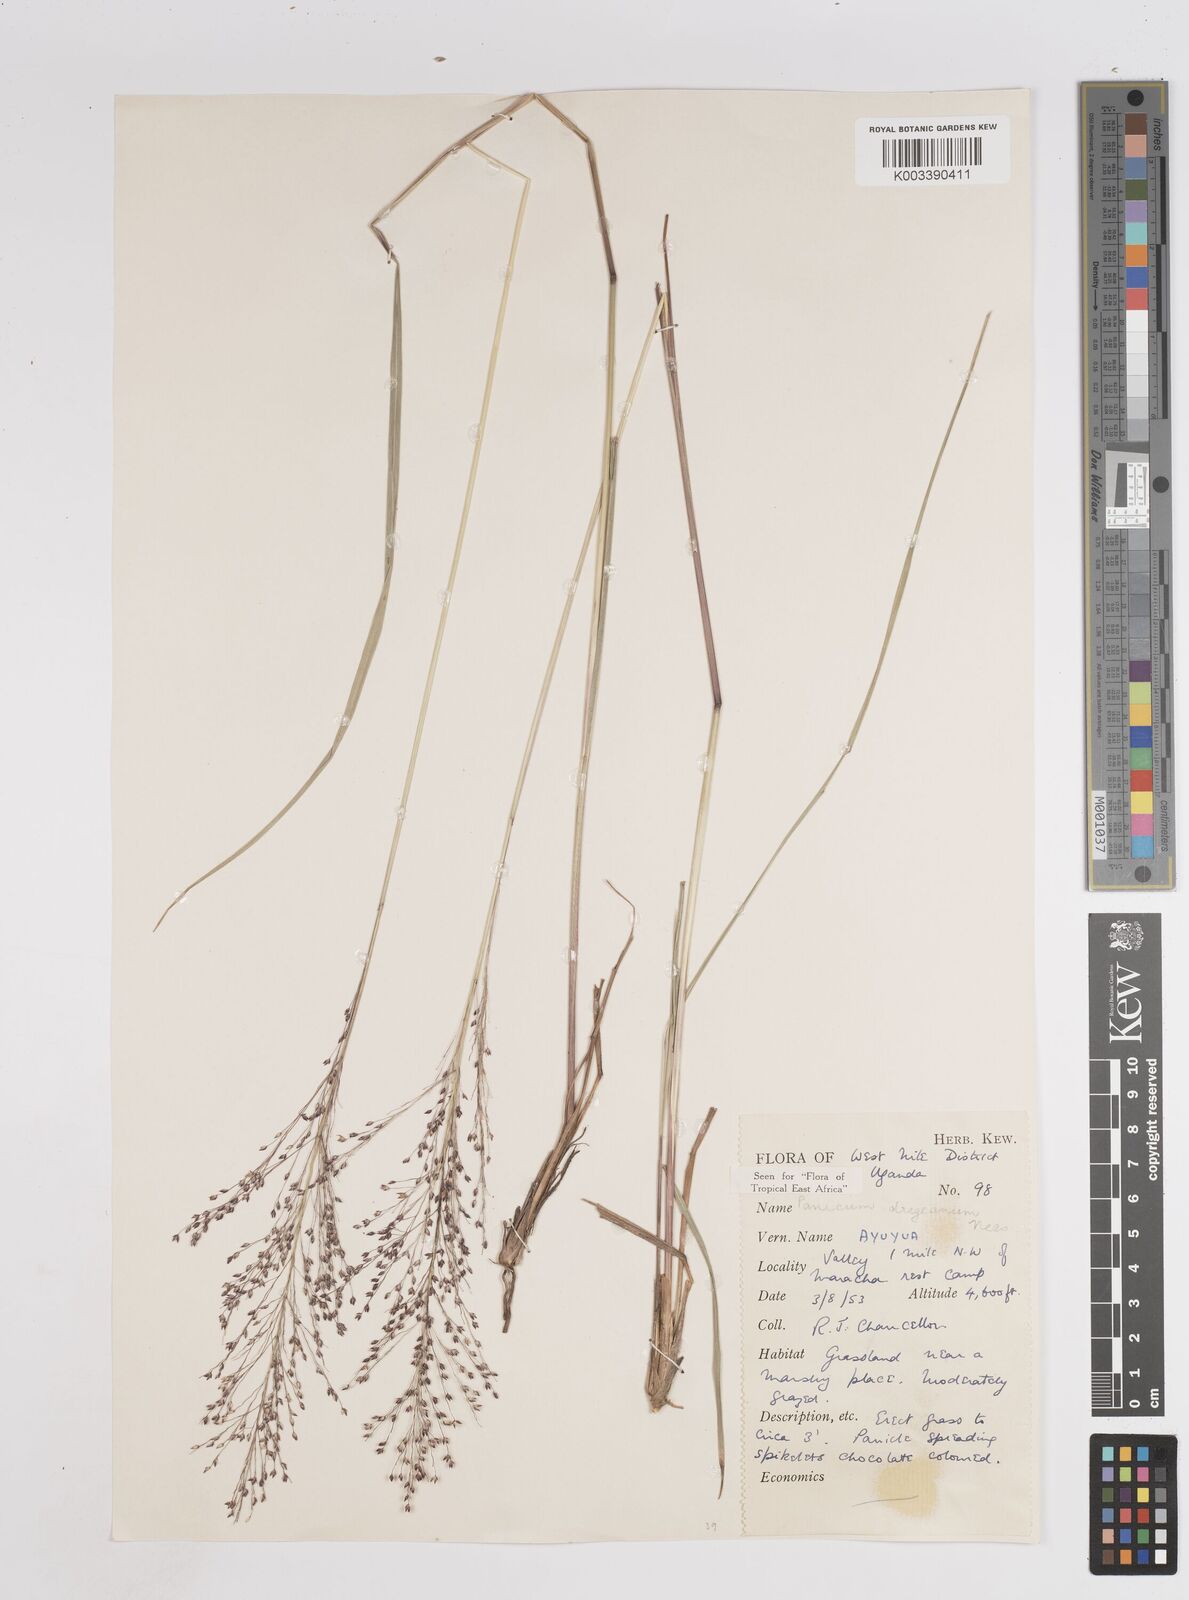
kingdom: Plantae
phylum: Tracheophyta
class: Liliopsida
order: Poales
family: Poaceae
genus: Panicum
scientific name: Panicum dregeanum
